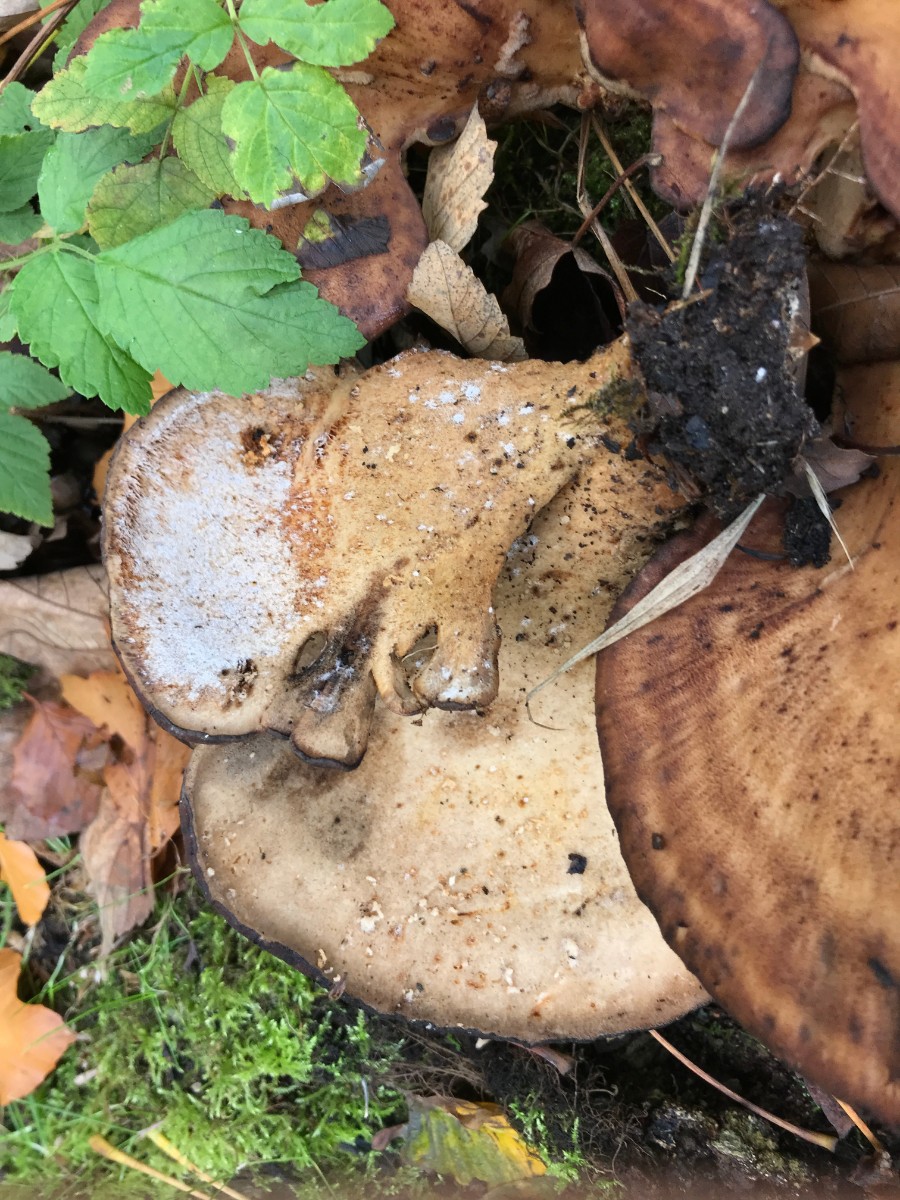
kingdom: Fungi
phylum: Basidiomycota
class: Agaricomycetes
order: Polyporales
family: Meripilaceae
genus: Meripilus
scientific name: Meripilus giganteus
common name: kæmpeporesvamp
